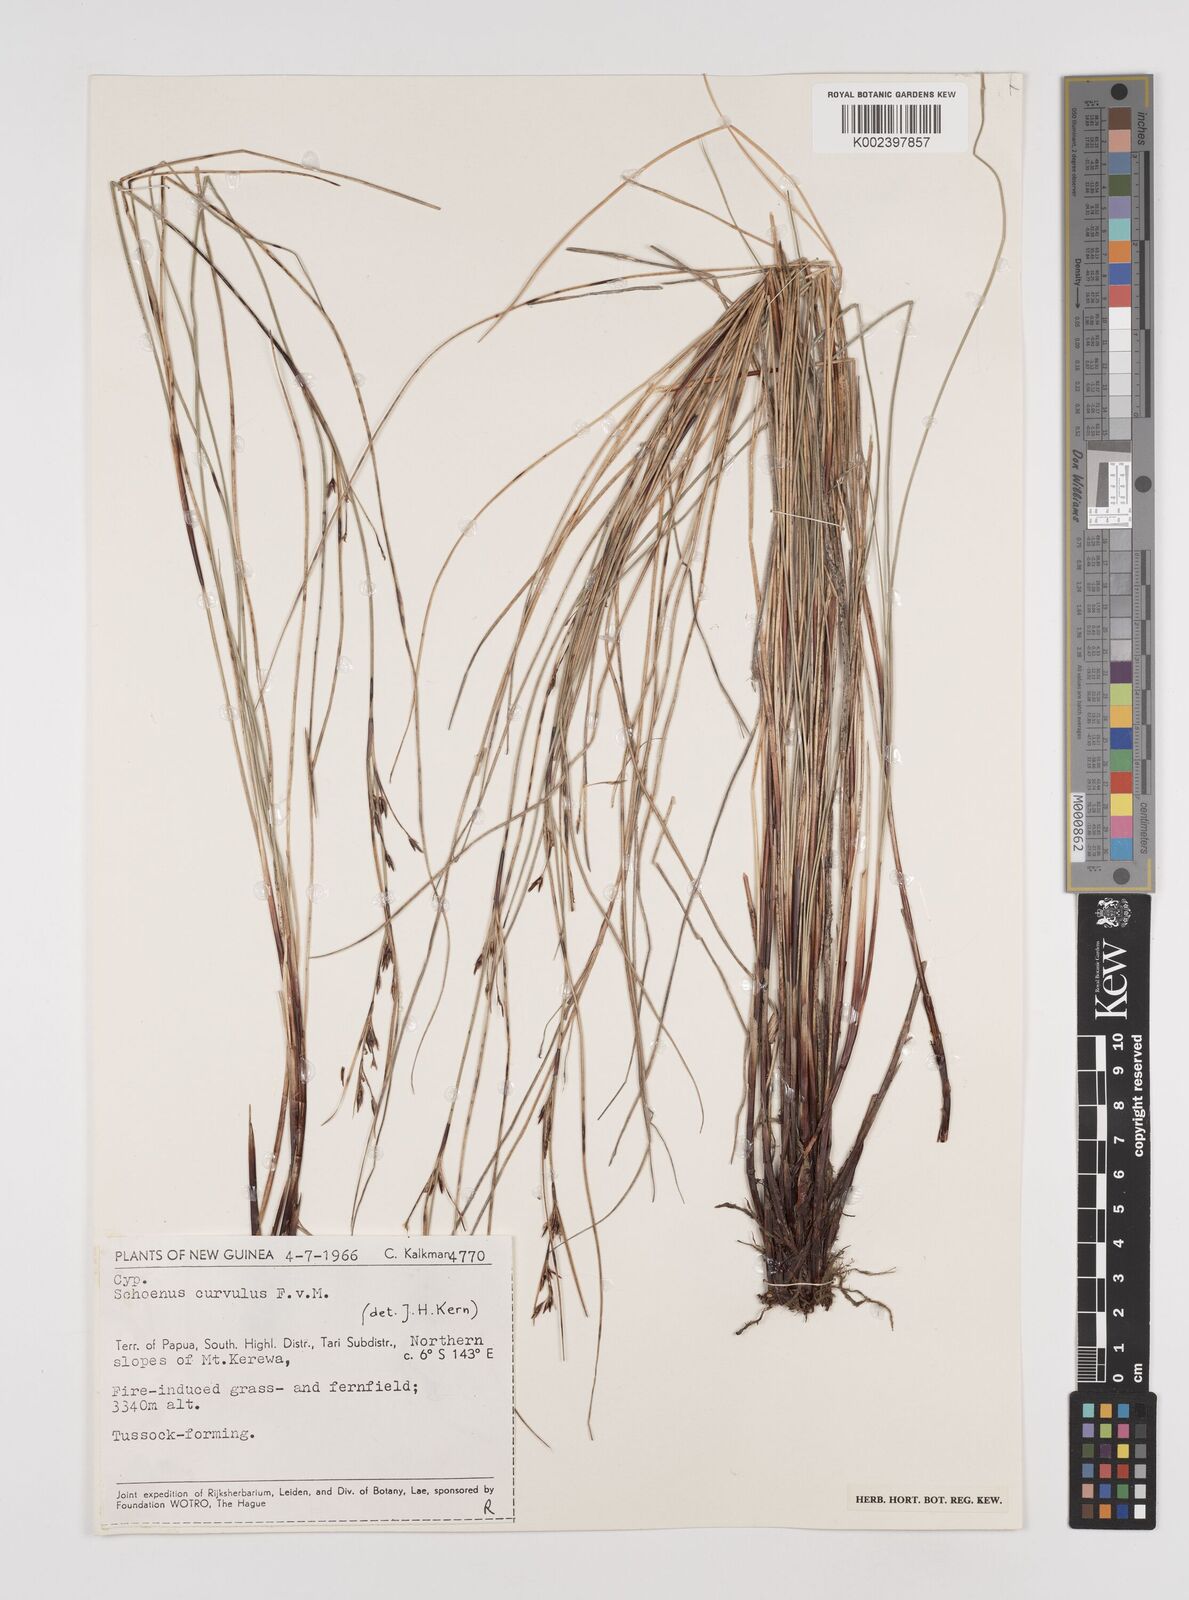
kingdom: Plantae
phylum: Tracheophyta
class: Liliopsida
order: Poales
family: Cyperaceae
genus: Schoenus
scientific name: Schoenus curvulus
